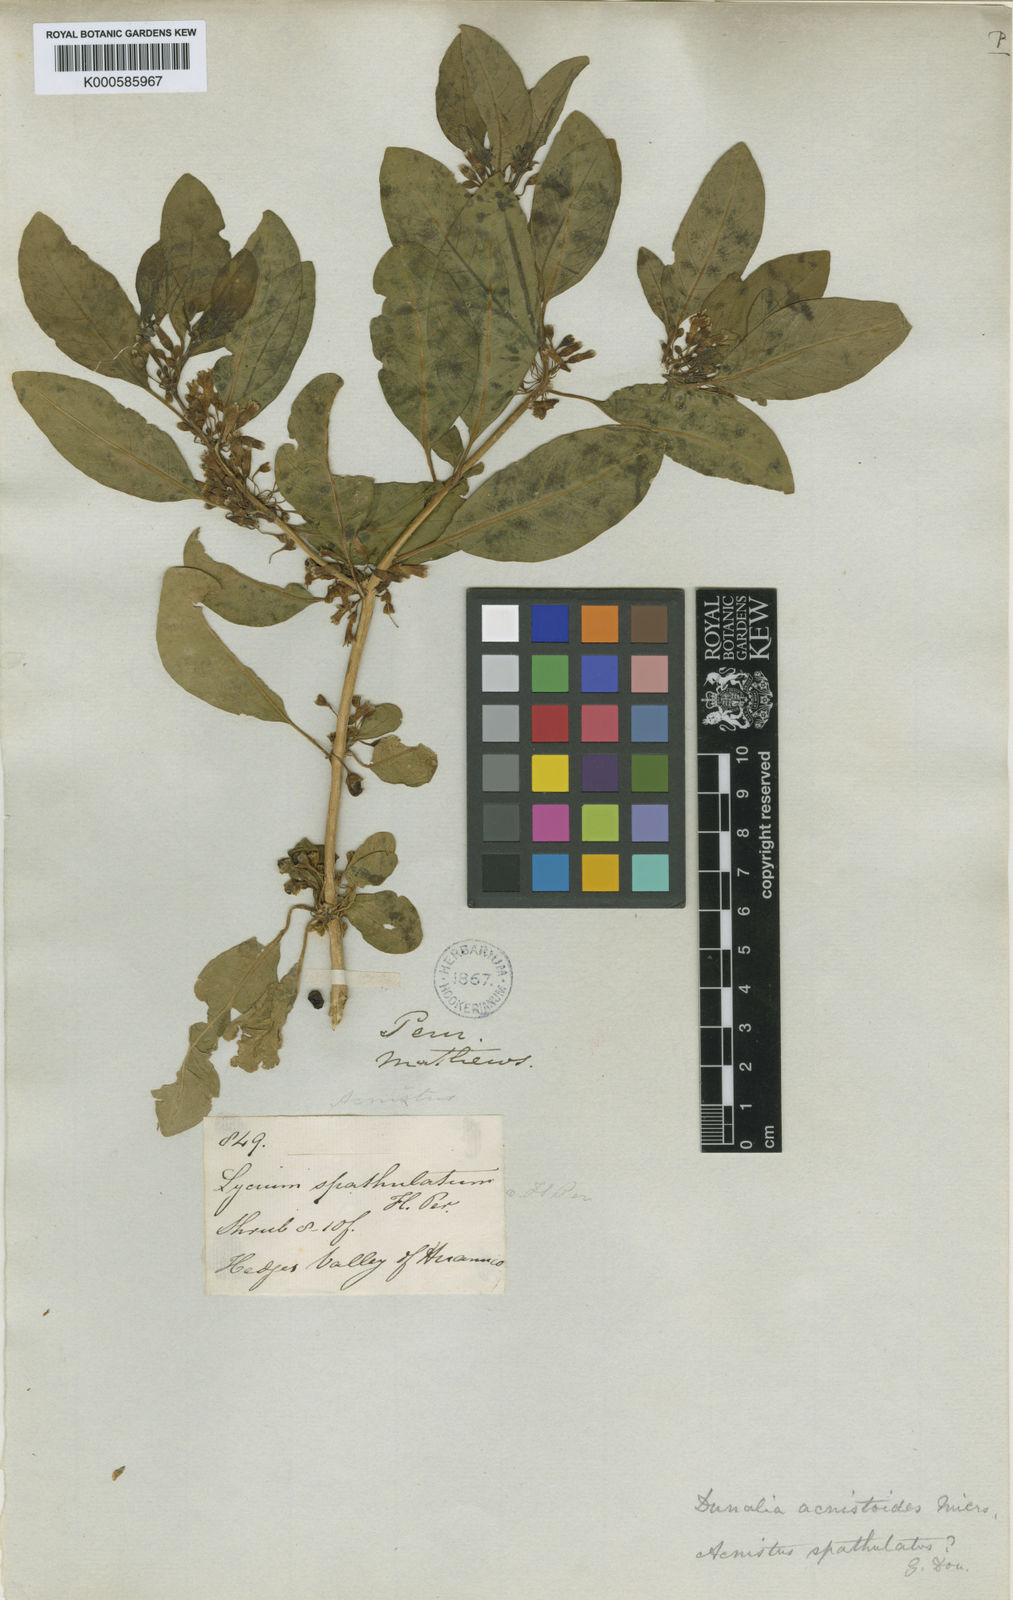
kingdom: Plantae
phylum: Tracheophyta
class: Magnoliopsida
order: Solanales
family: Solanaceae
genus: Dunalia
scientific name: Dunalia
